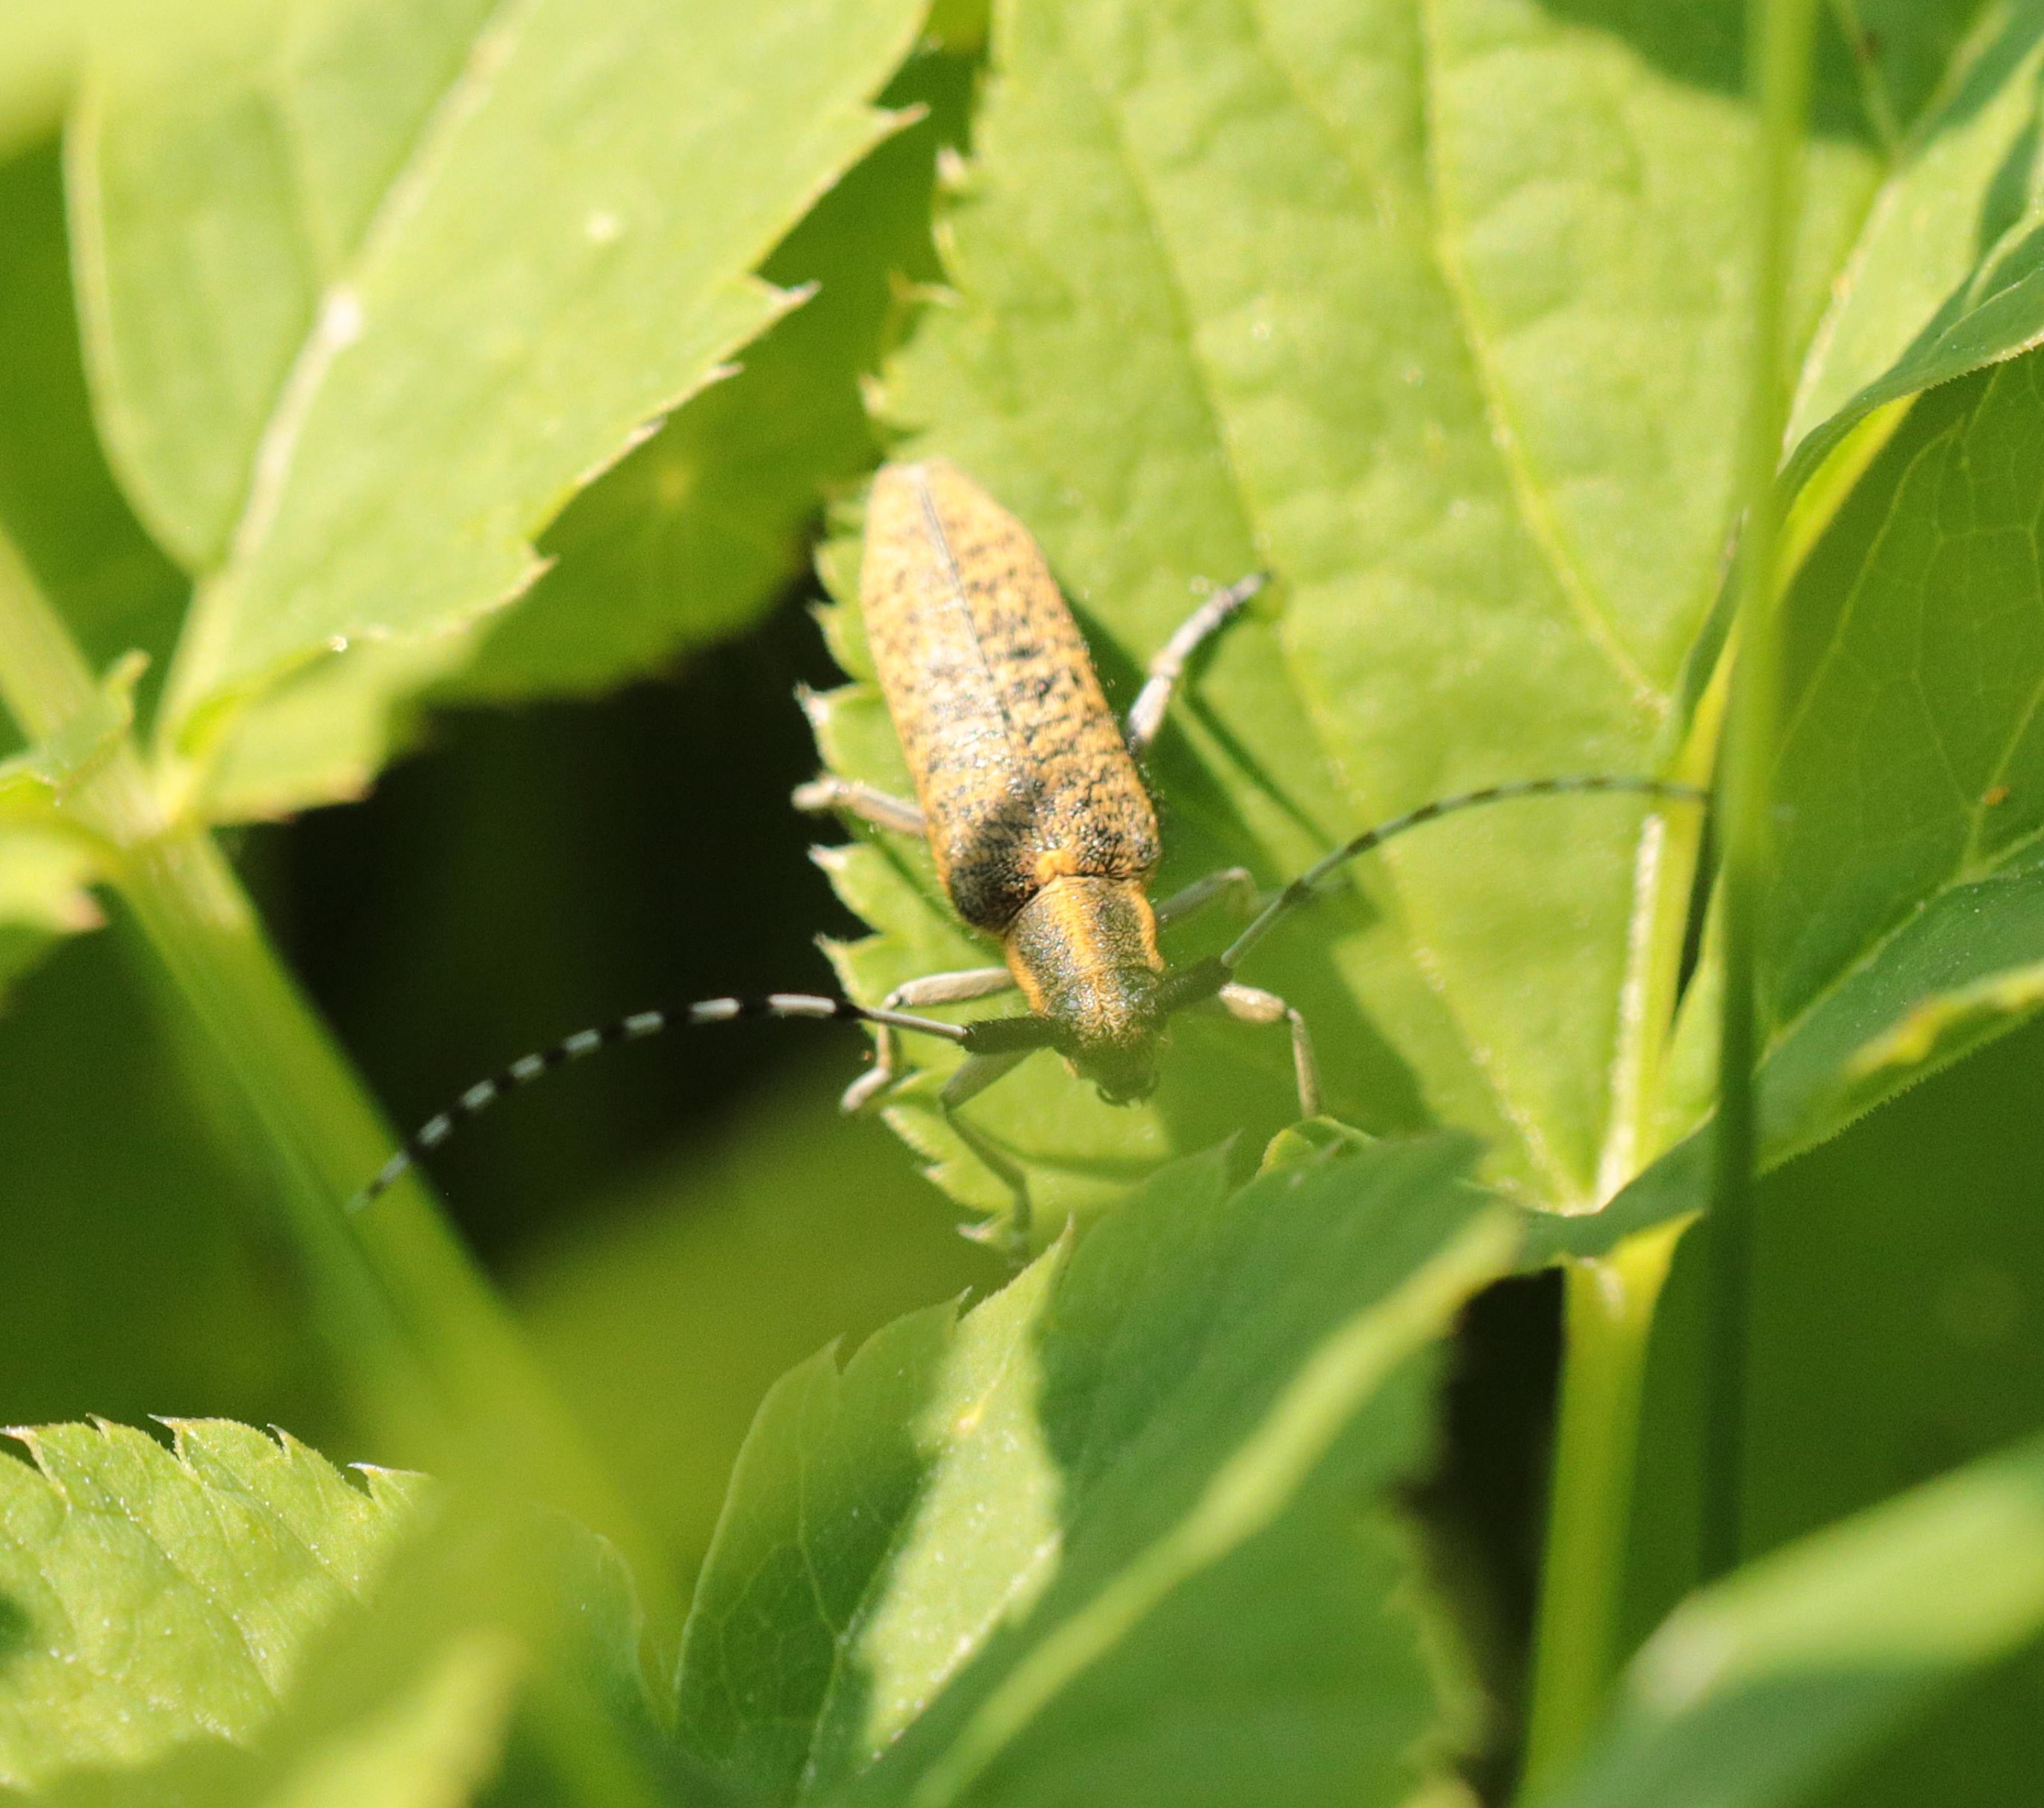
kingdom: Animalia
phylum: Arthropoda
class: Insecta
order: Coleoptera
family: Cerambycidae
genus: Agapanthia
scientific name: Agapanthia villosoviridescens
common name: Tidselbuk
